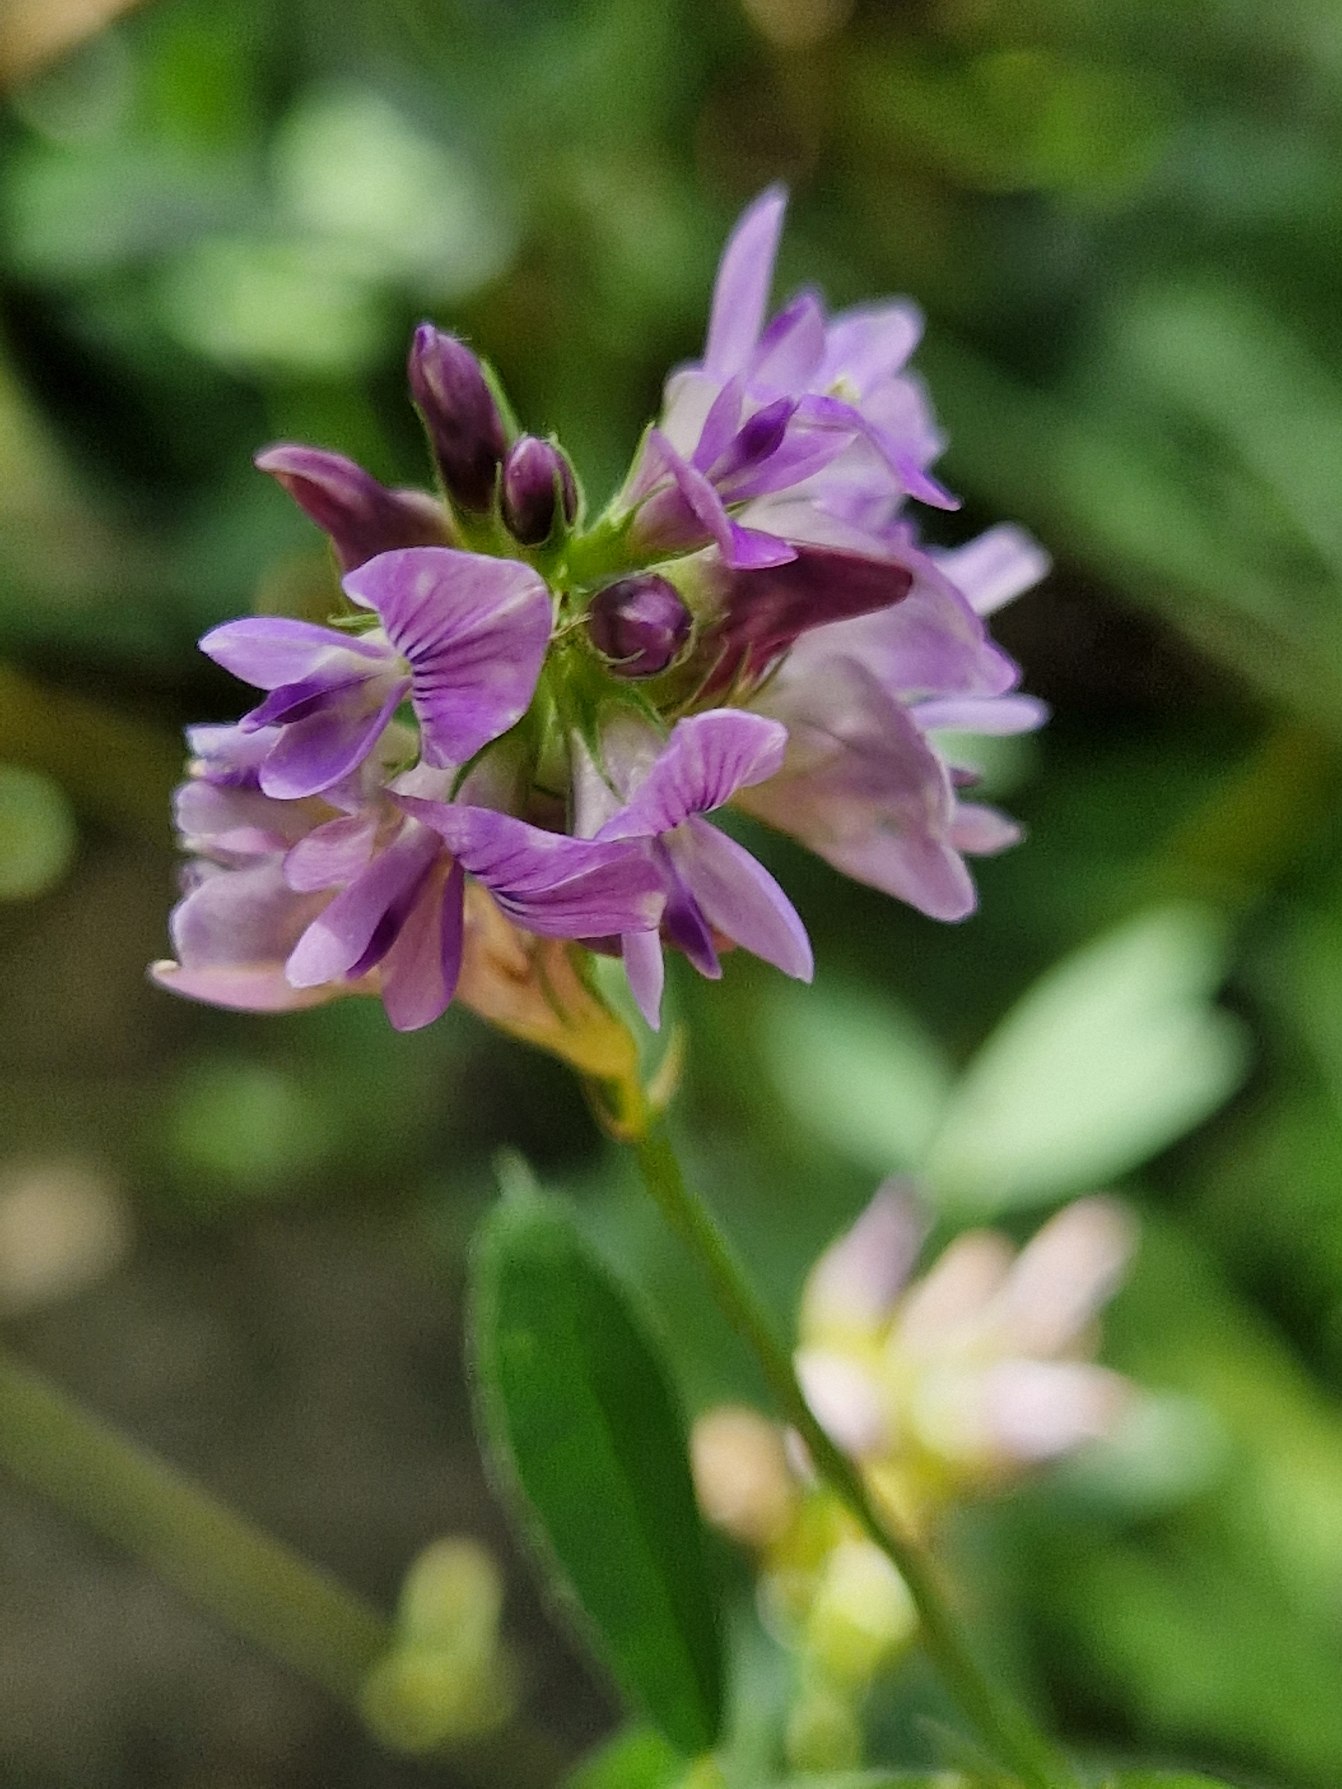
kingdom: Plantae
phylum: Tracheophyta
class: Magnoliopsida
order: Fabales
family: Fabaceae
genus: Medicago
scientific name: Medicago sativa
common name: Foderlucerne
